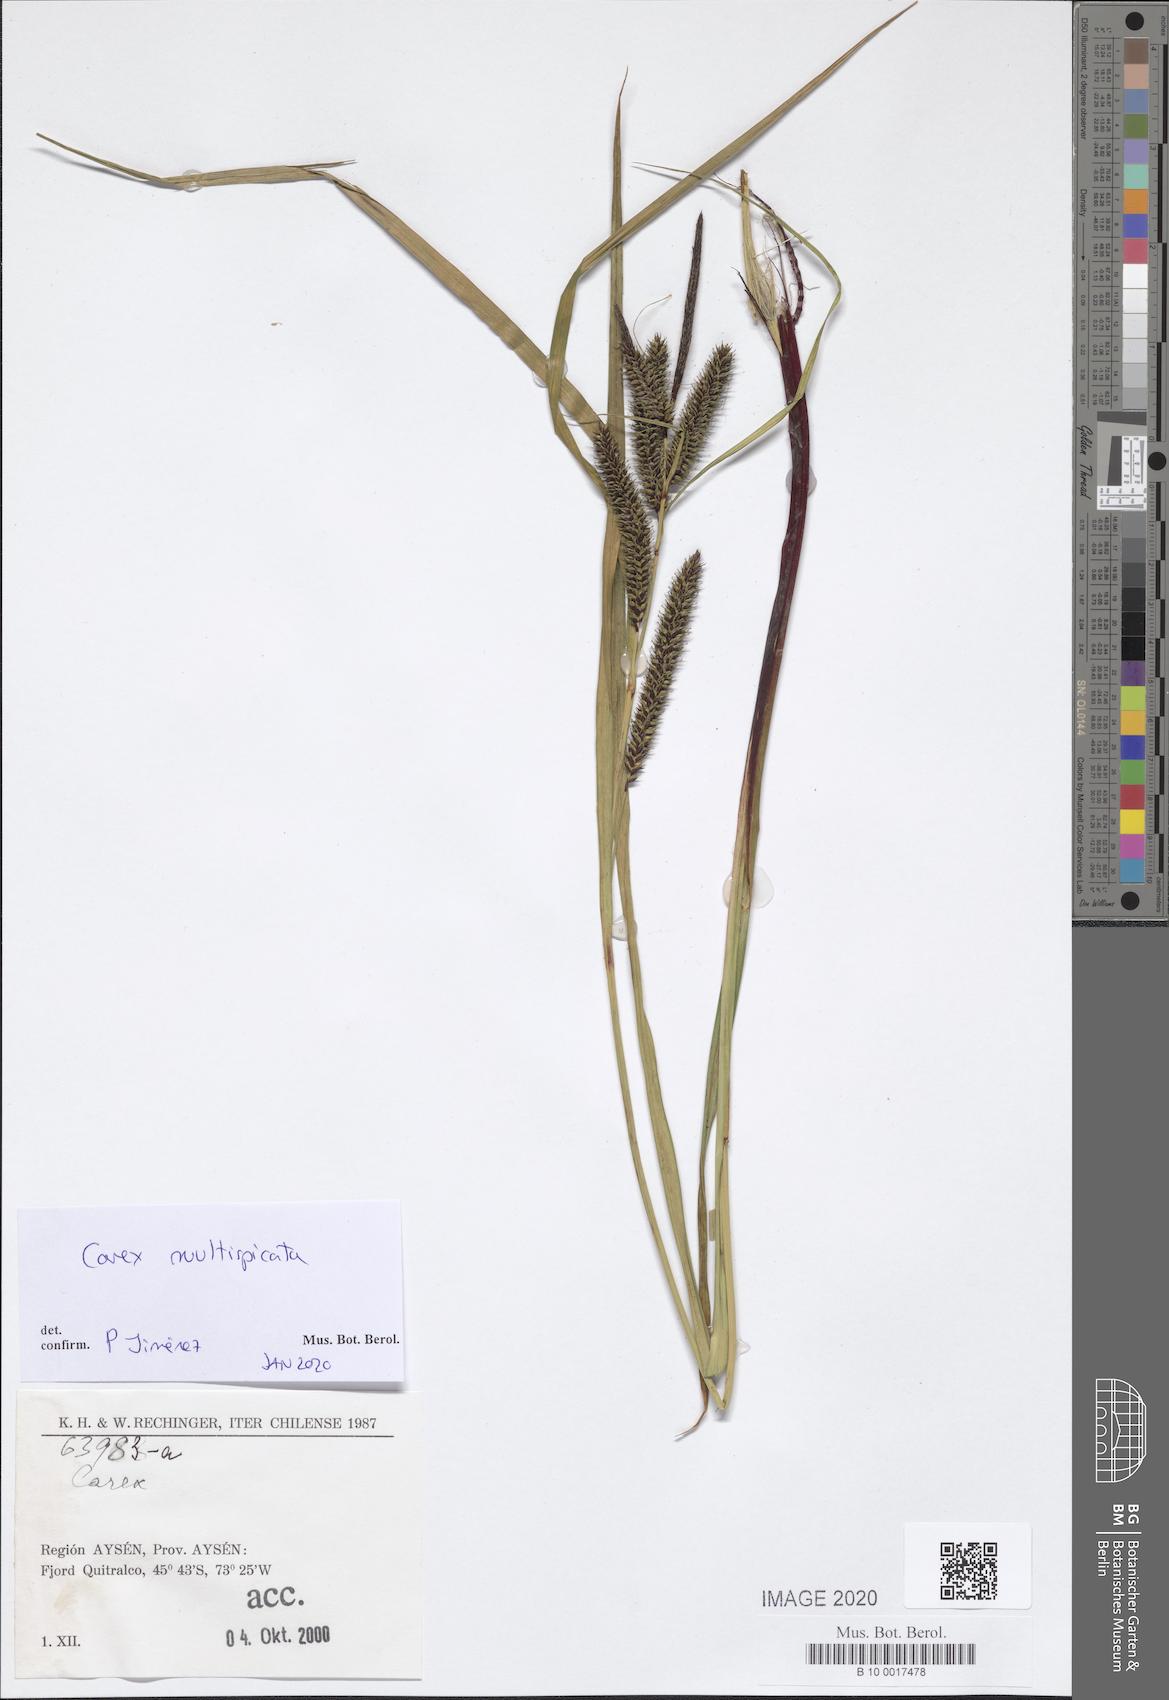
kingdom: Plantae
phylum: Tracheophyta
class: Liliopsida
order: Poales
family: Cyperaceae
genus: Carex
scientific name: Carex multispicata
